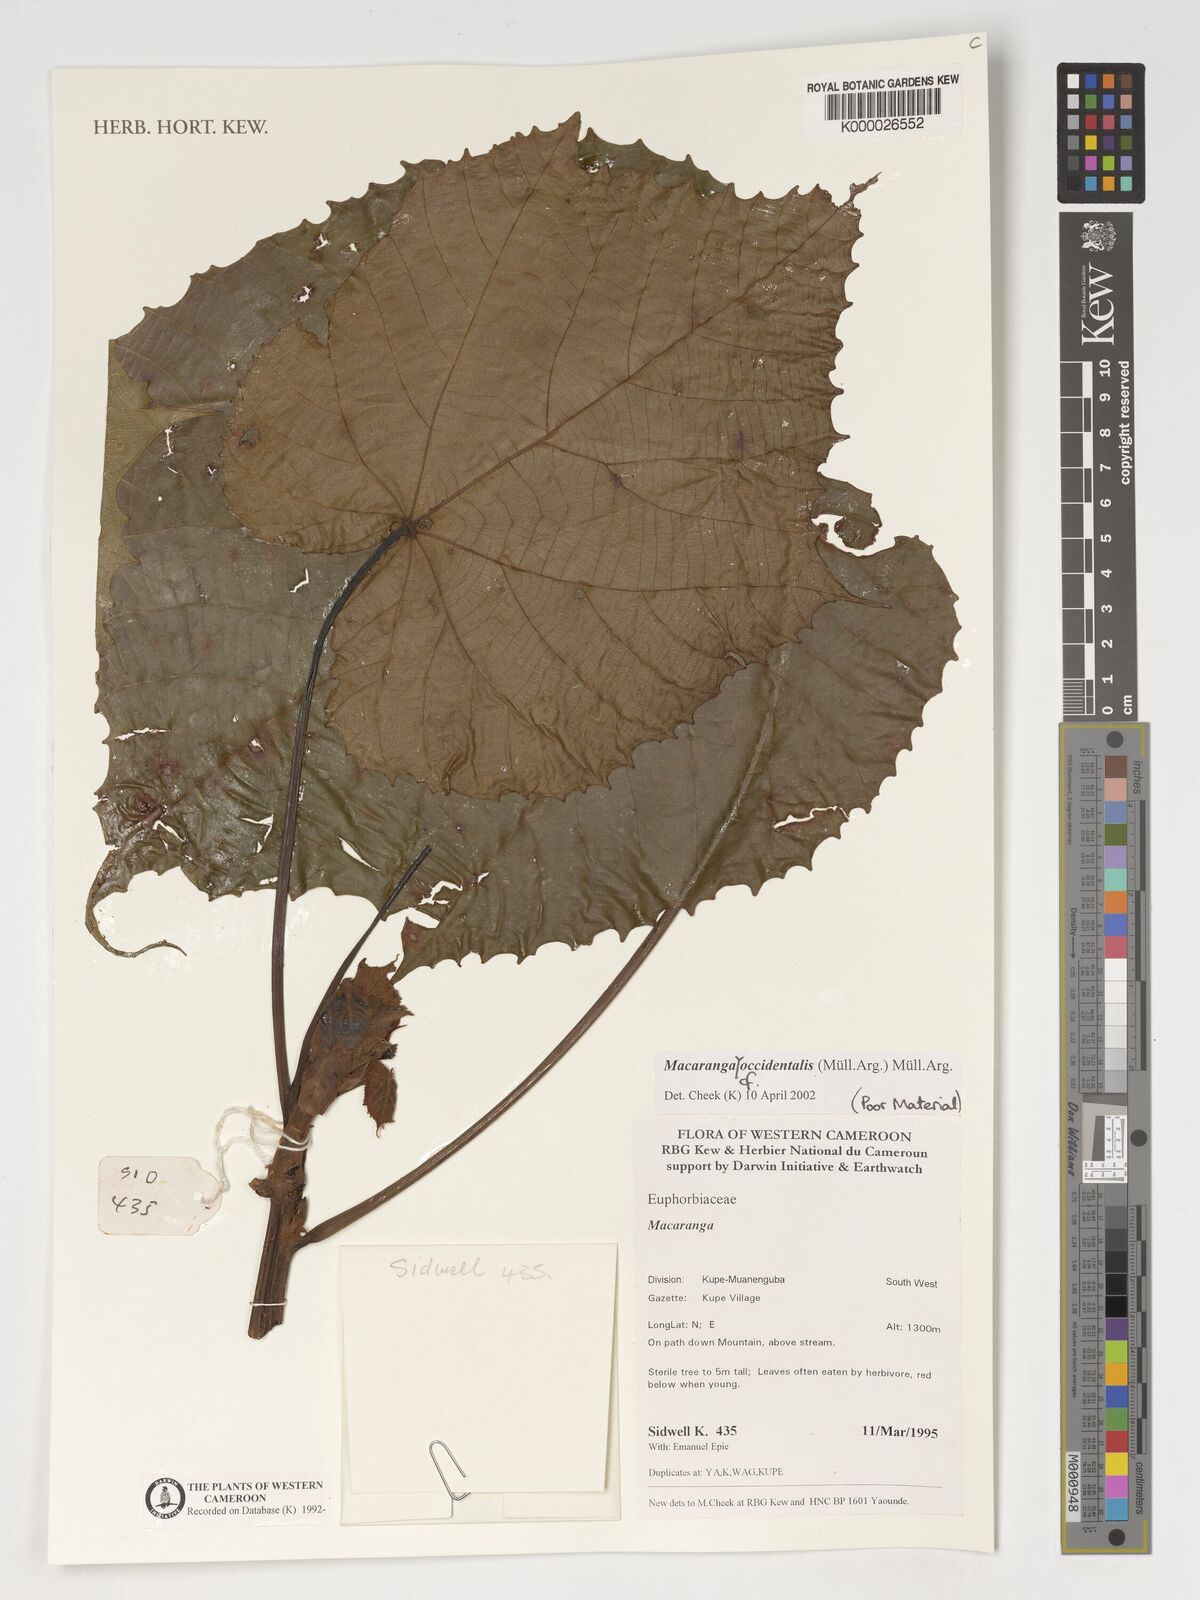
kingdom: Plantae
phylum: Tracheophyta
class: Magnoliopsida
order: Malpighiales
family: Euphorbiaceae
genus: Macaranga
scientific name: Macaranga occidentalis
